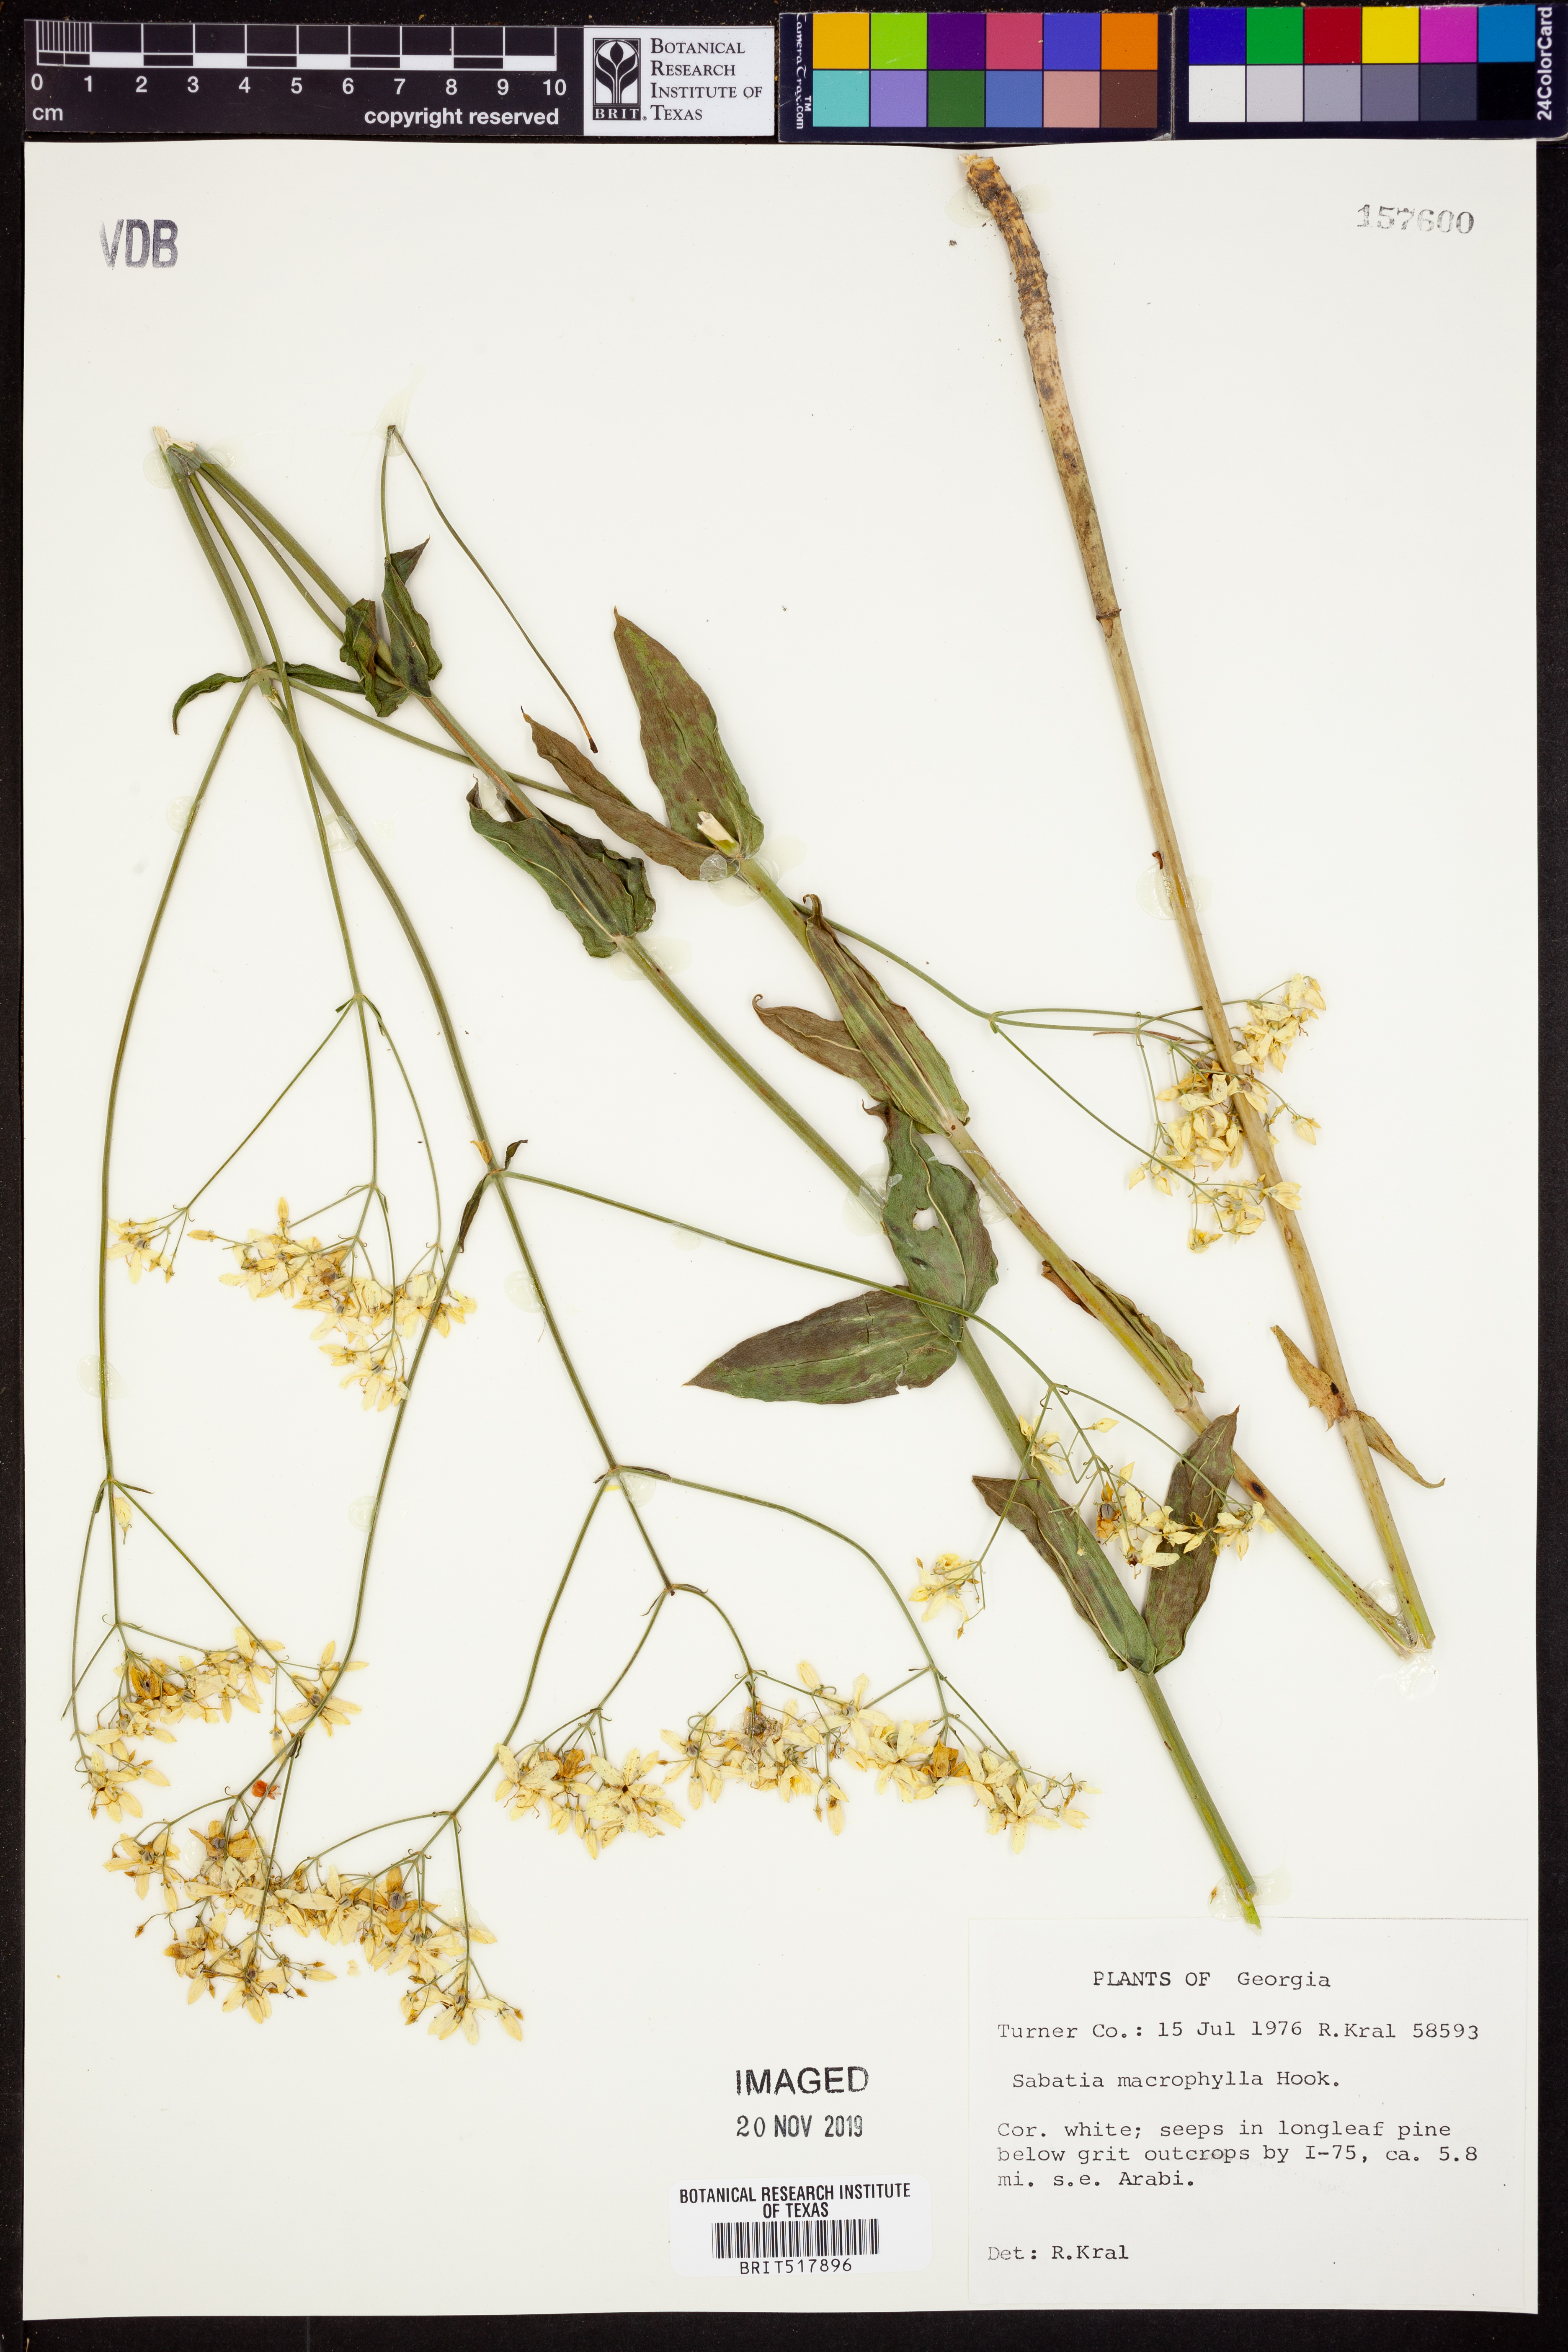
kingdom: Plantae
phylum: Tracheophyta
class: Magnoliopsida
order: Gentianales
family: Gentianaceae
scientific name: Gentianaceae
